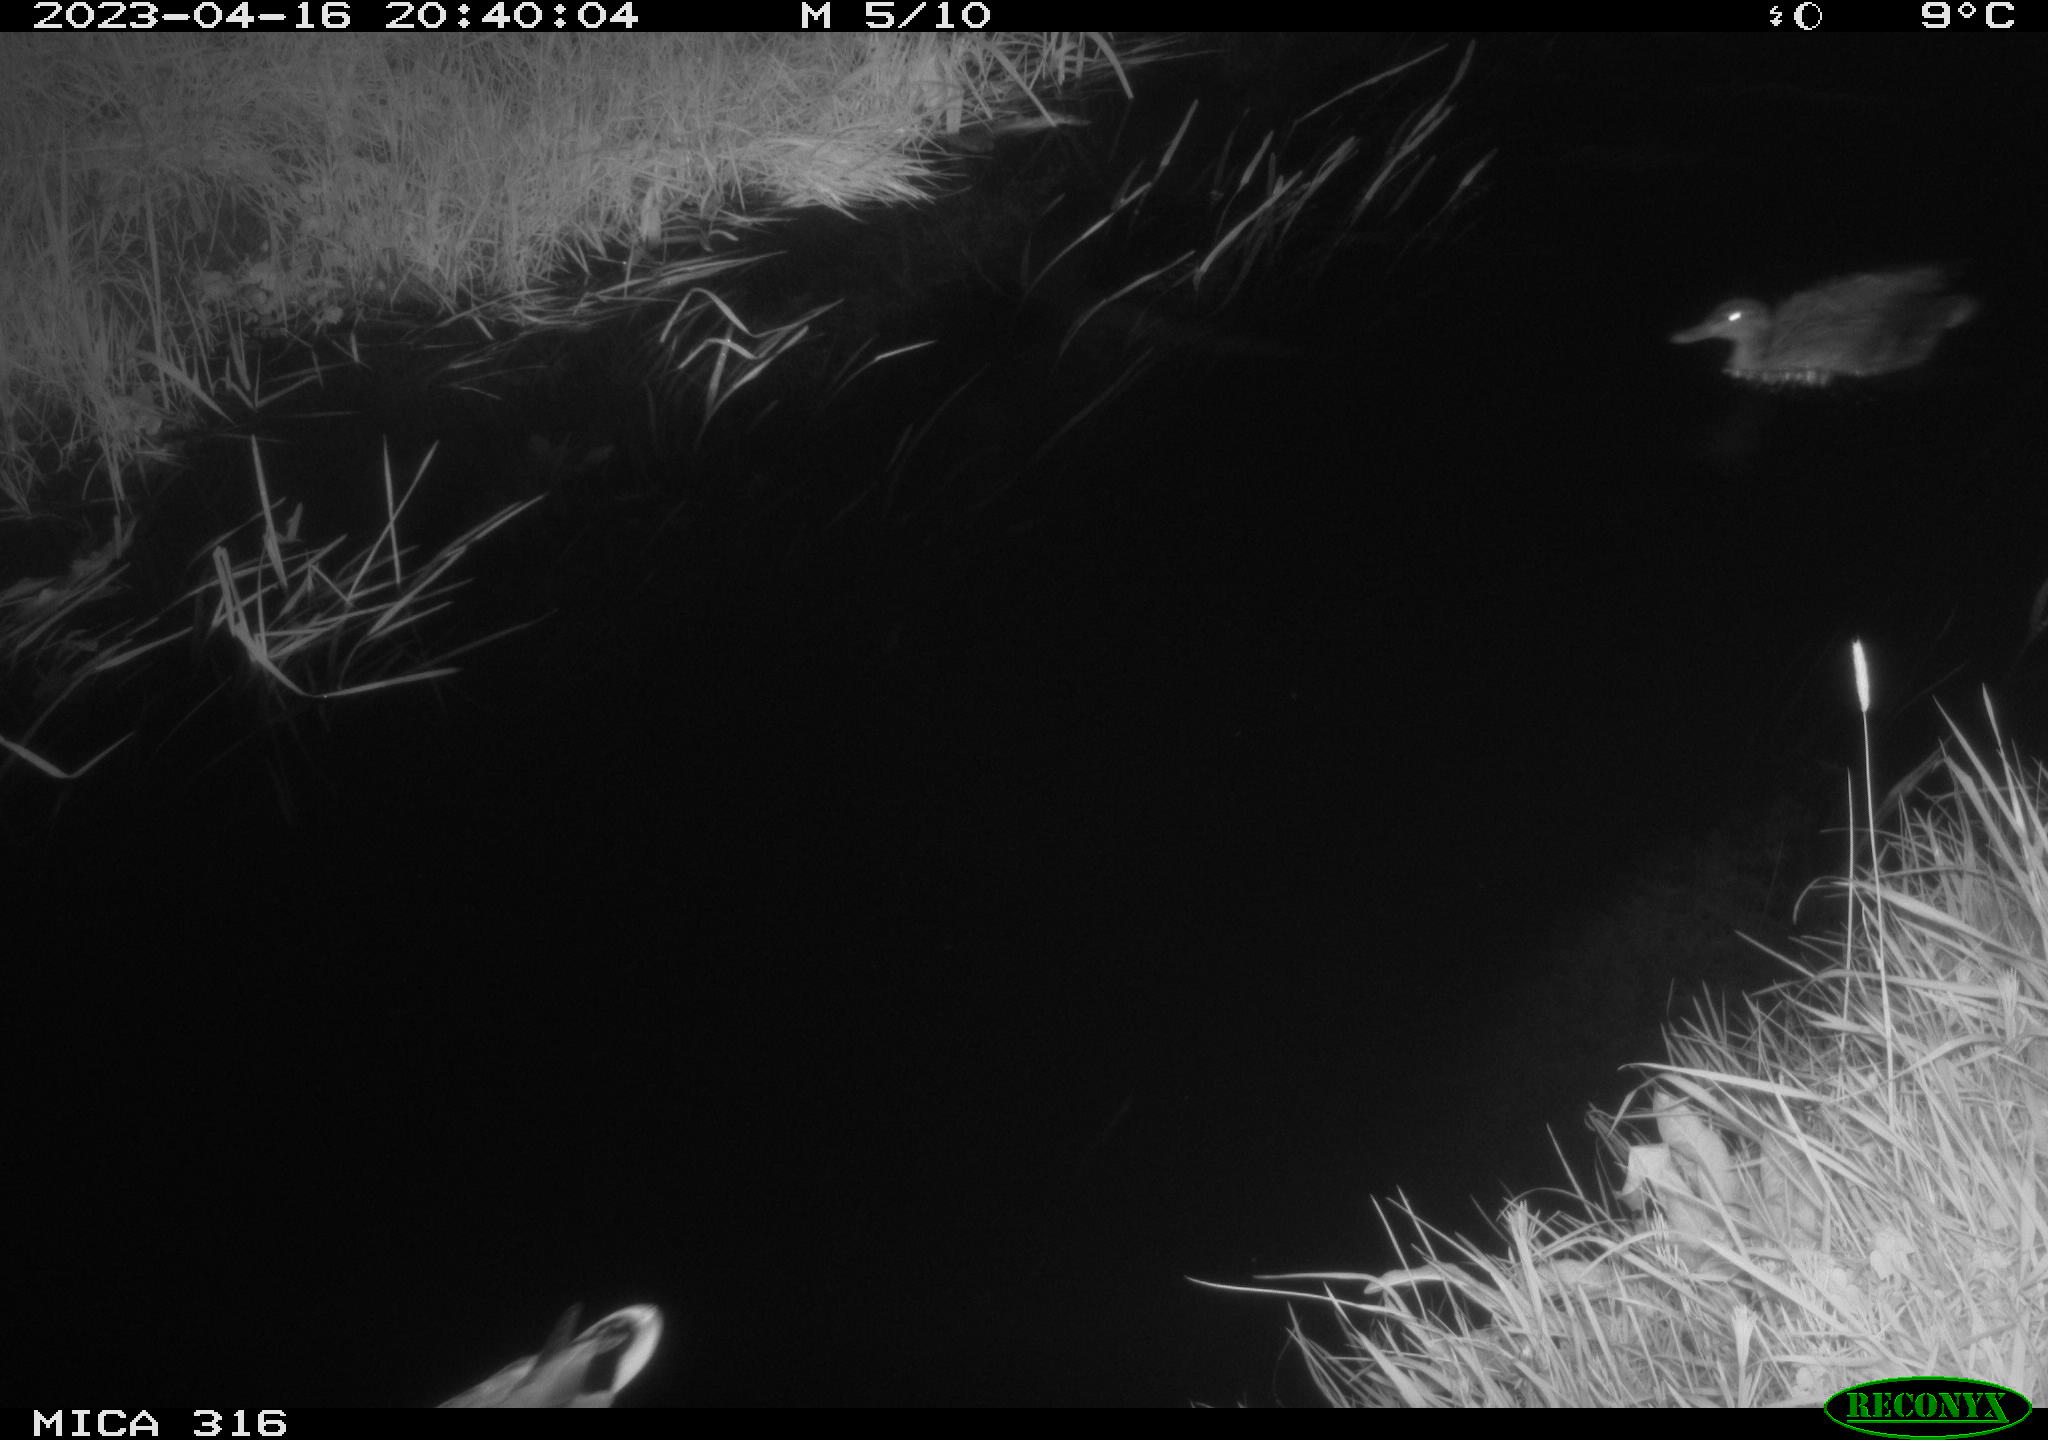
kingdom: Animalia
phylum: Chordata
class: Aves
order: Anseriformes
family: Anatidae
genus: Anas
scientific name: Anas
